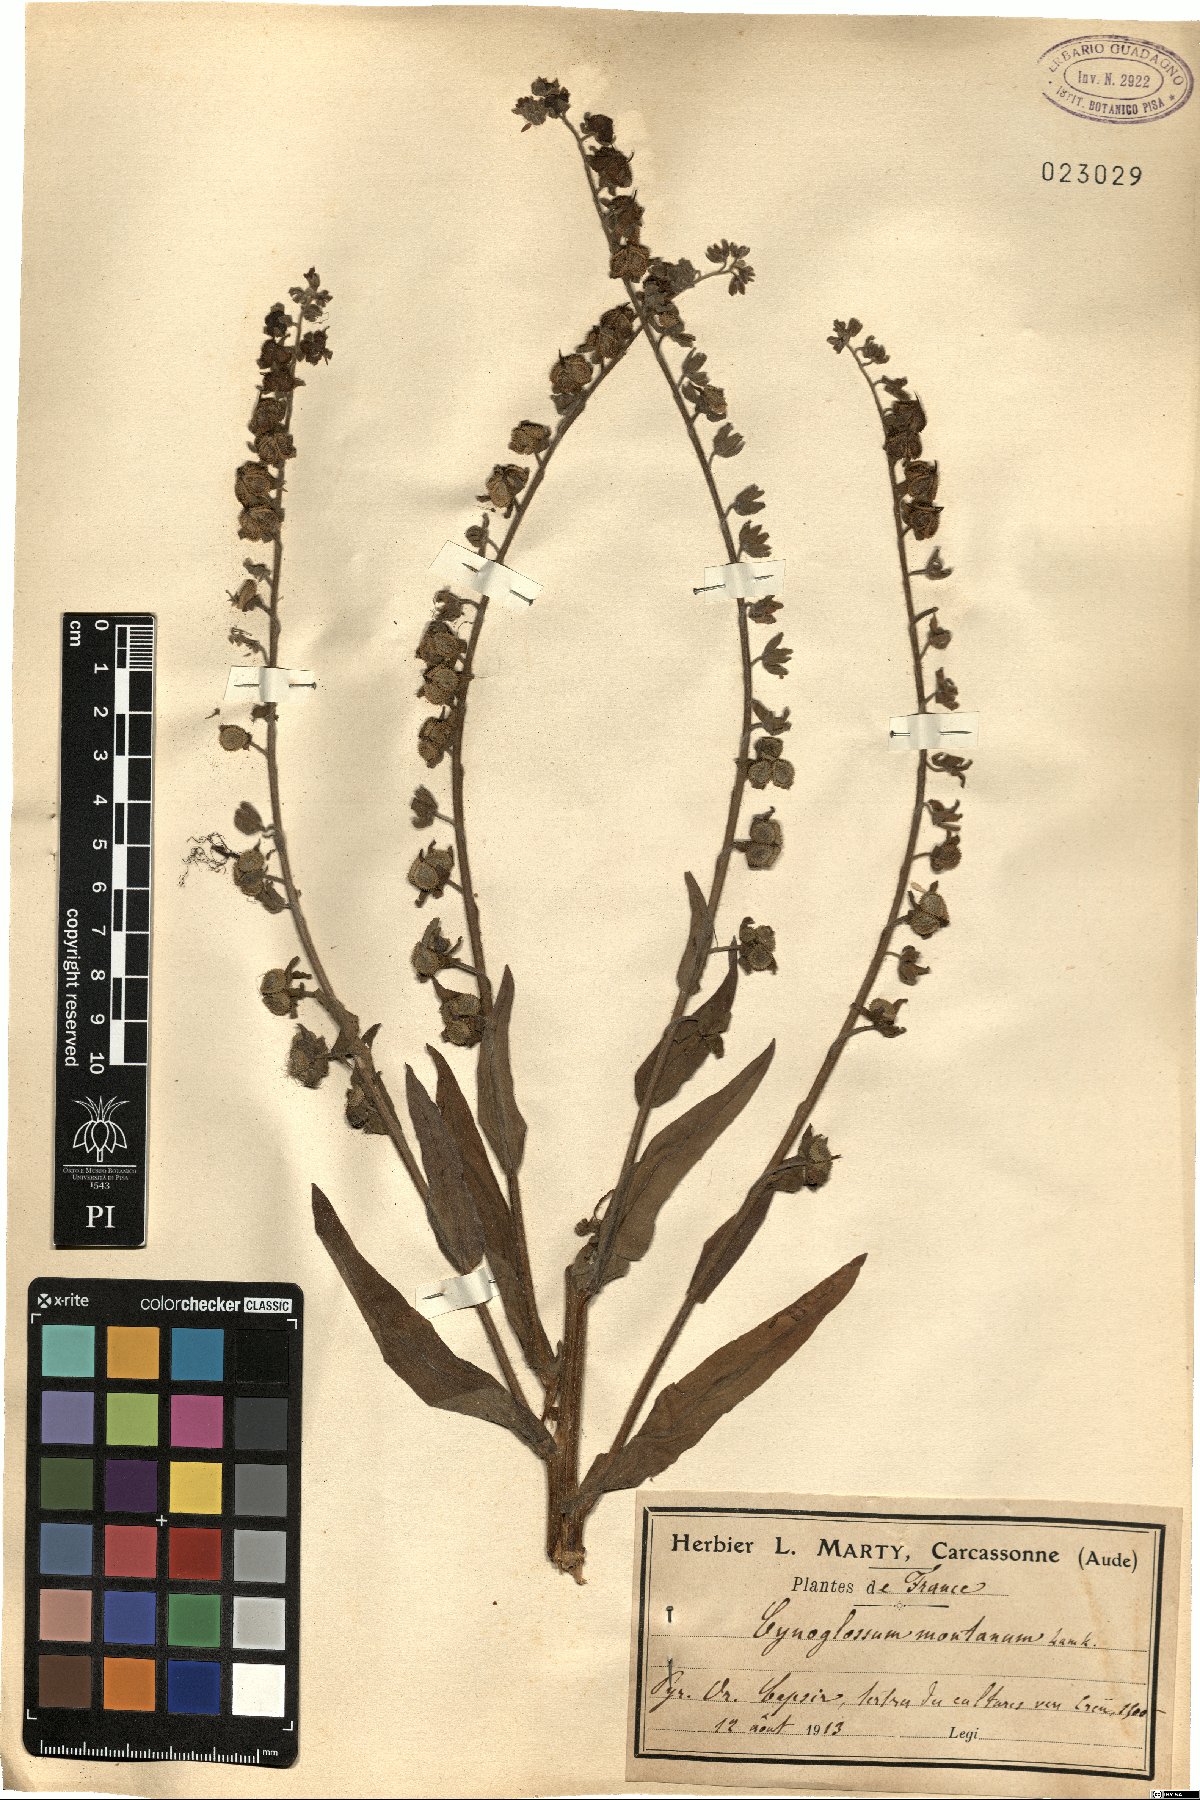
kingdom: Plantae
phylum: Tracheophyta
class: Magnoliopsida
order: Boraginales
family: Boraginaceae
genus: Cynoglossum
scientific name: Cynoglossum montanum
